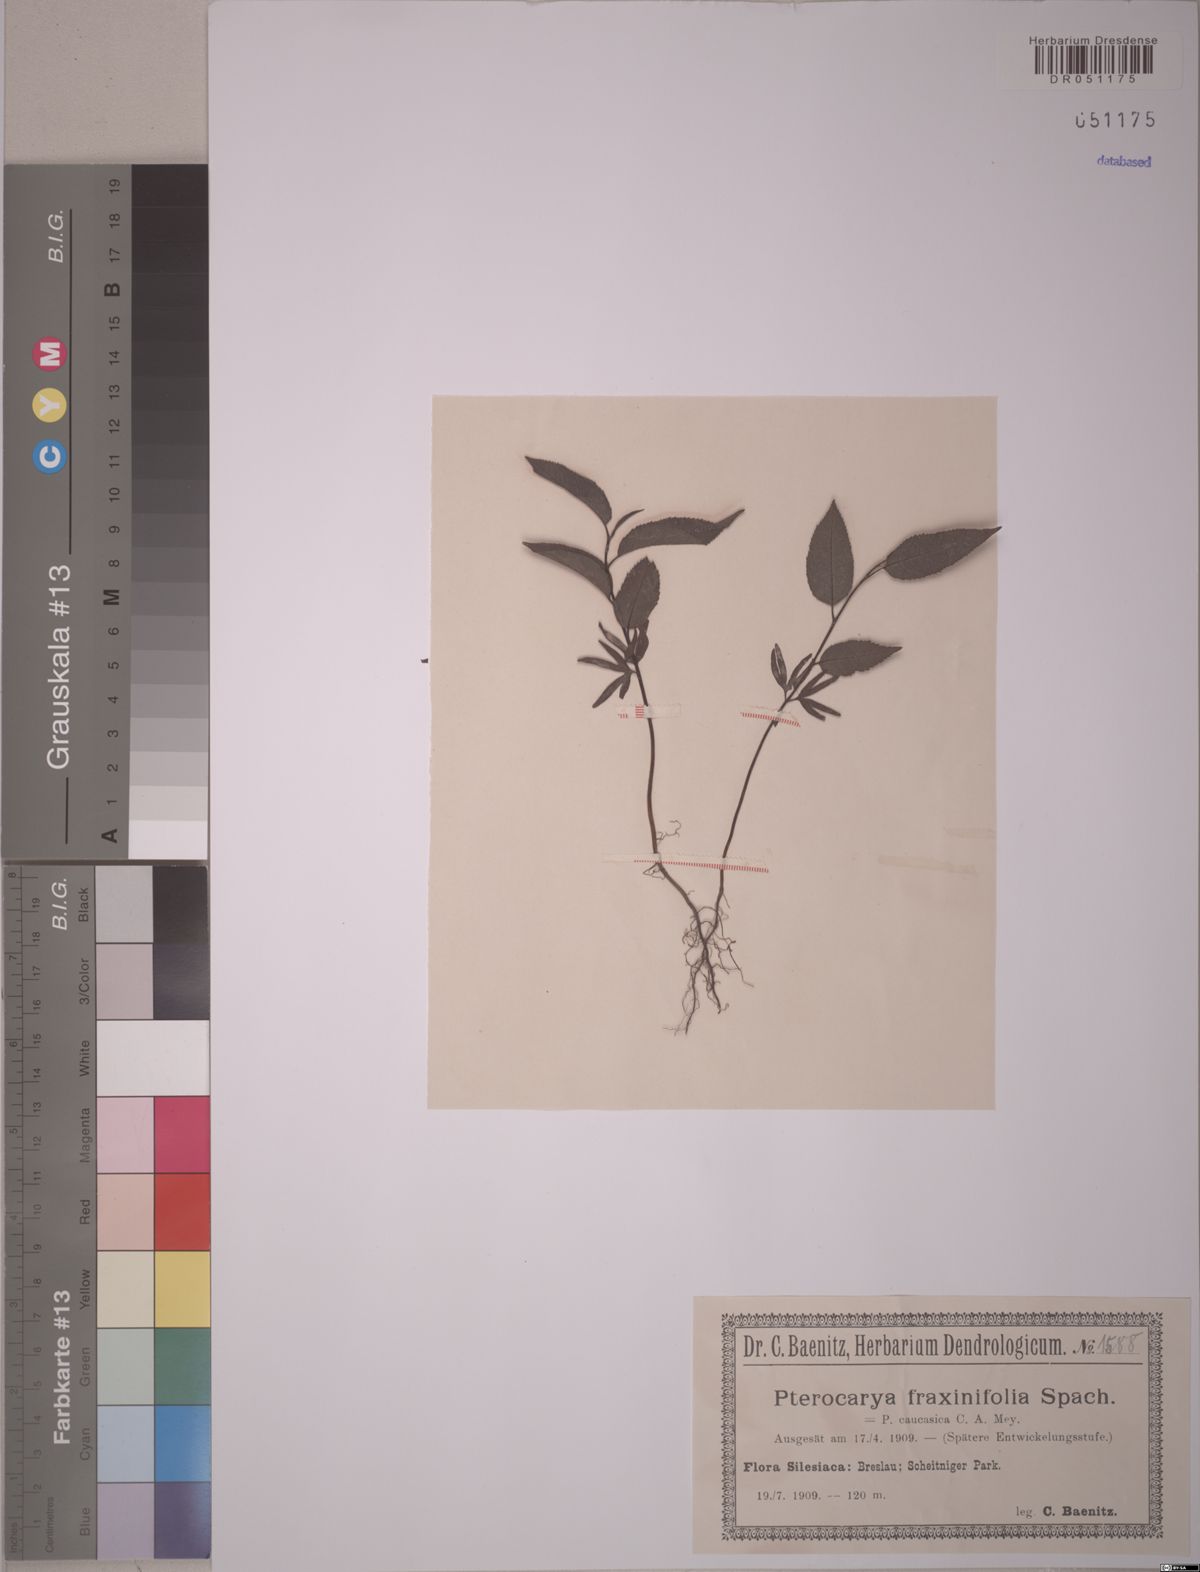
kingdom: Plantae
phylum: Tracheophyta
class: Magnoliopsida
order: Fagales
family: Juglandaceae
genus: Pterocarya
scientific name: Pterocarya fraxinifolia
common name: Caucasian wingnut
